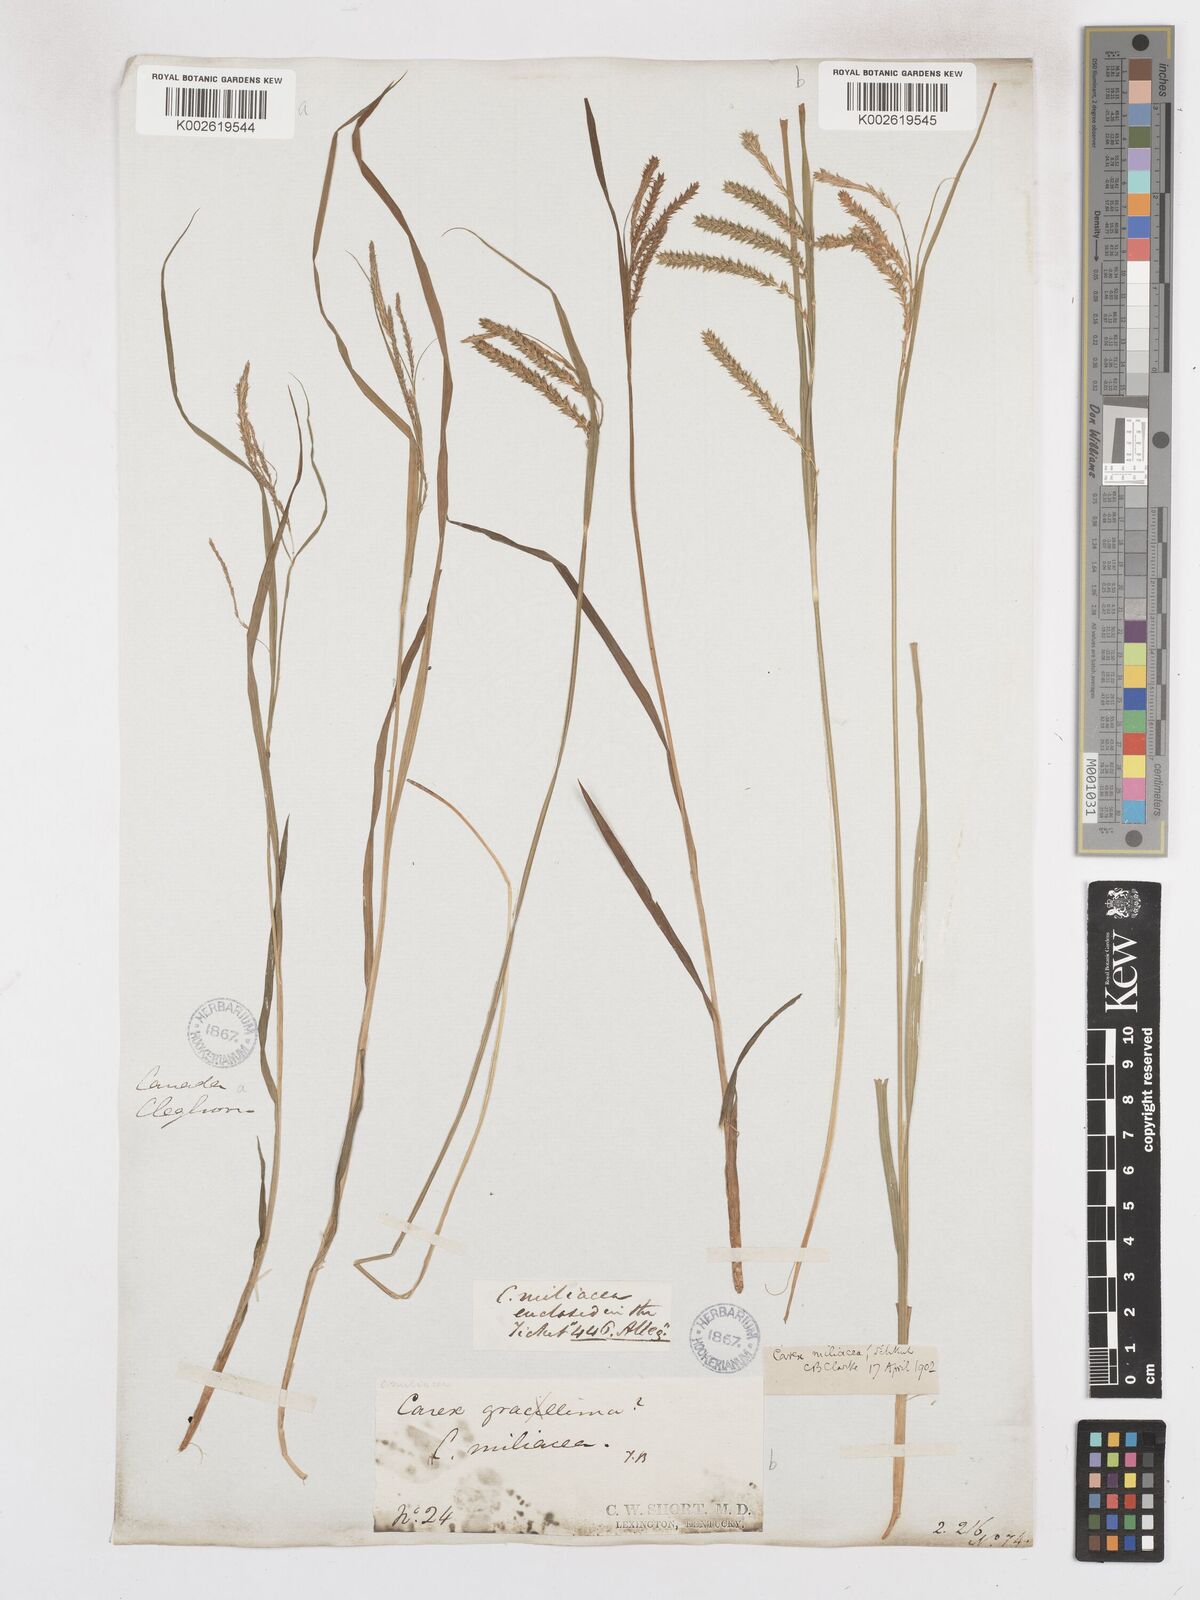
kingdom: Plantae
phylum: Tracheophyta
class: Liliopsida
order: Poales
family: Cyperaceae
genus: Carex
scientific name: Carex prasina
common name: Drooping sedge
